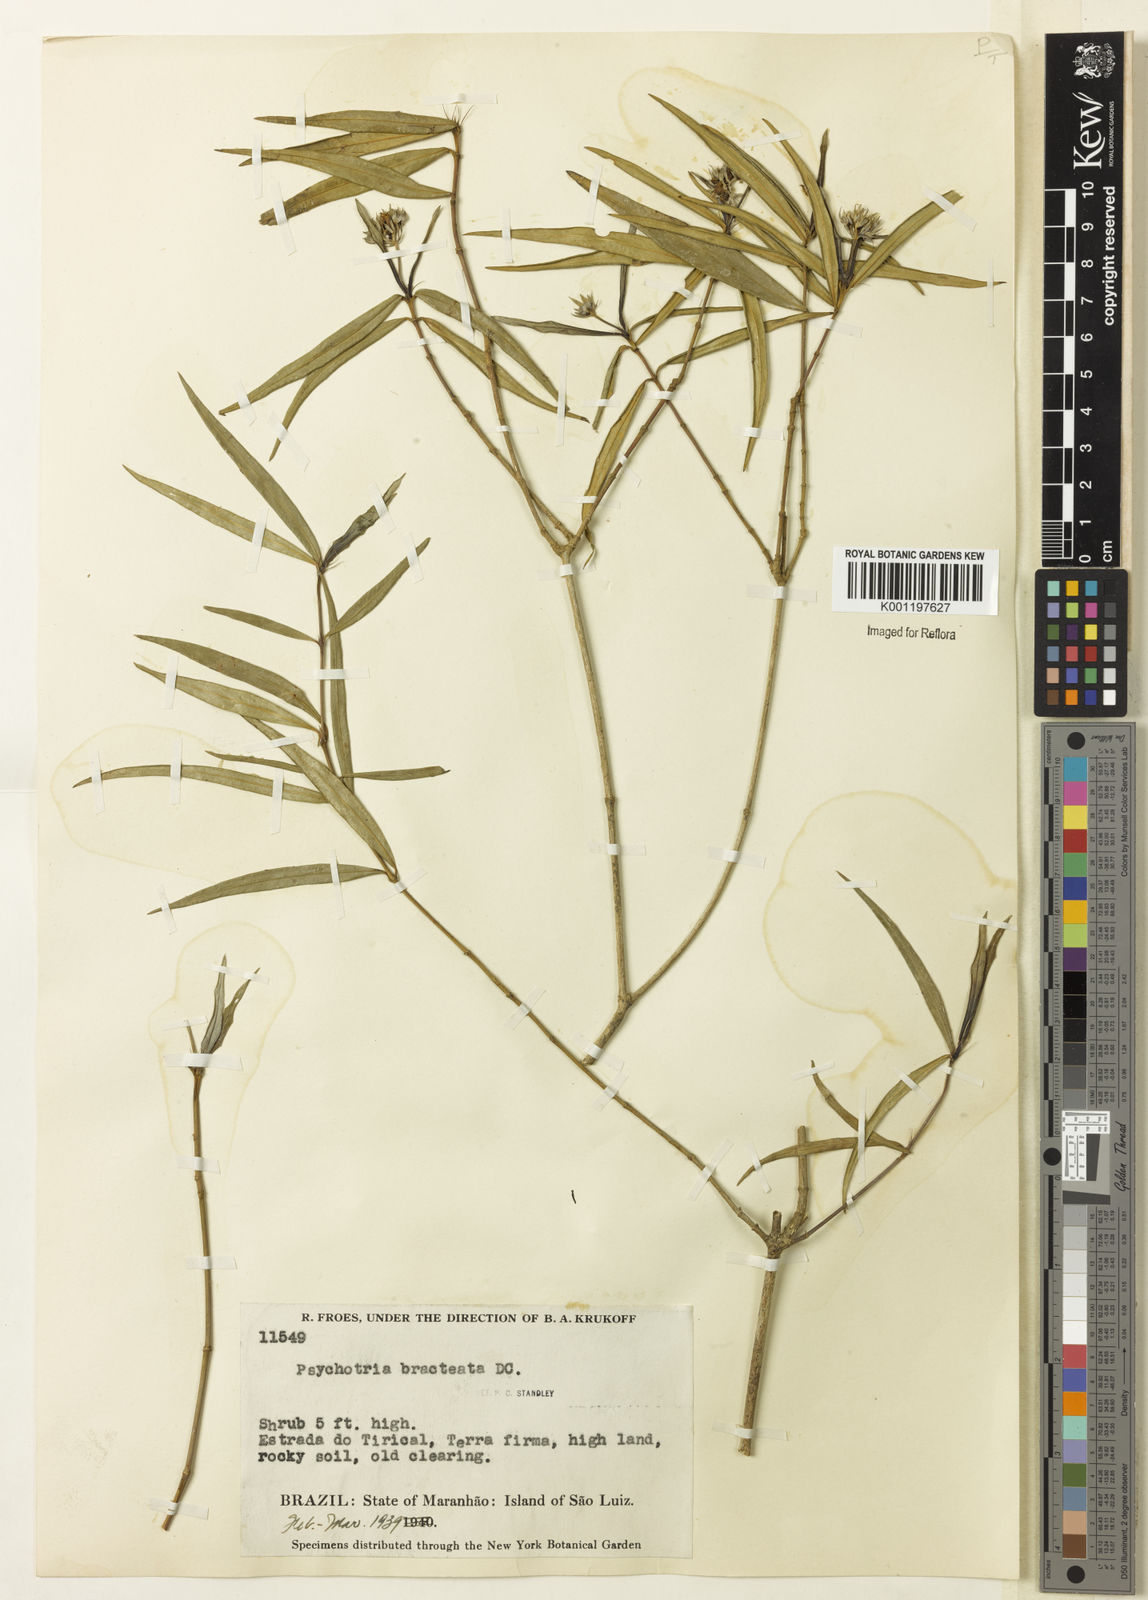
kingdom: Plantae
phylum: Tracheophyta
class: Magnoliopsida
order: Gentianales
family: Rubiaceae
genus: Palicourea
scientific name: Palicourea maguireorum
